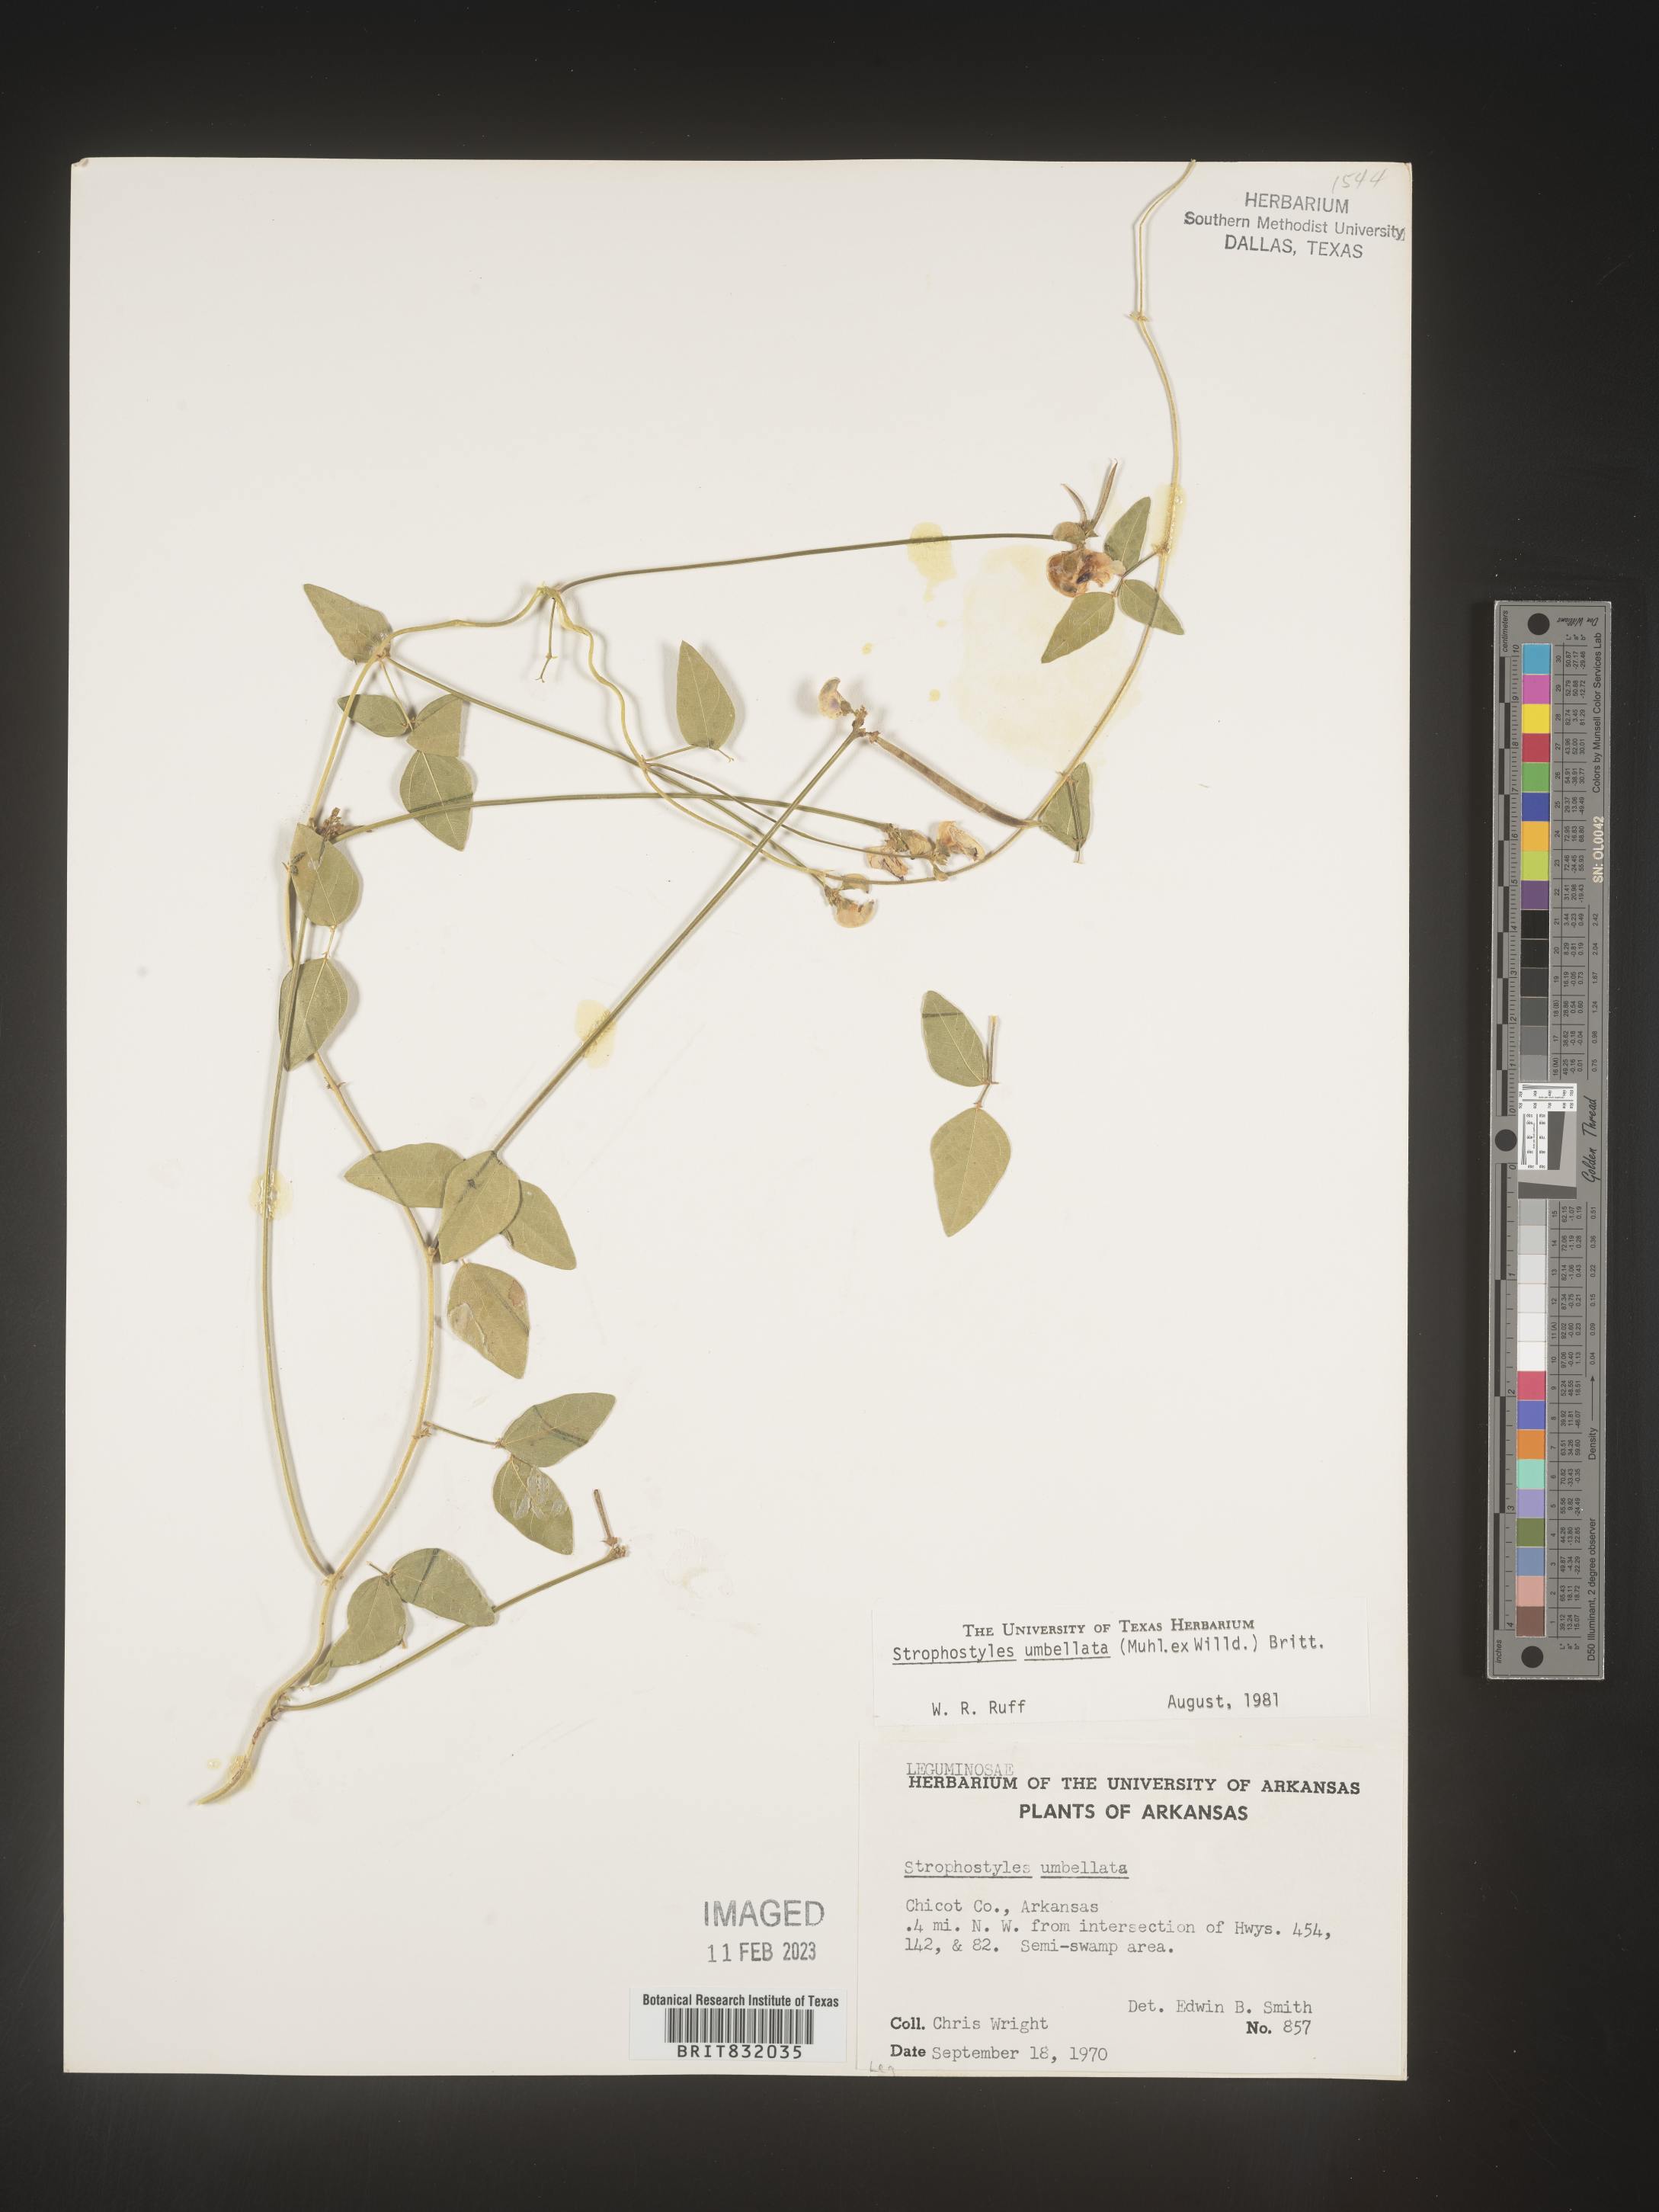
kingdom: Plantae
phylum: Tracheophyta
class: Magnoliopsida
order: Fabales
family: Fabaceae
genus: Strophostyles
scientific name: Strophostyles umbellata
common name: Perennial wild bean
